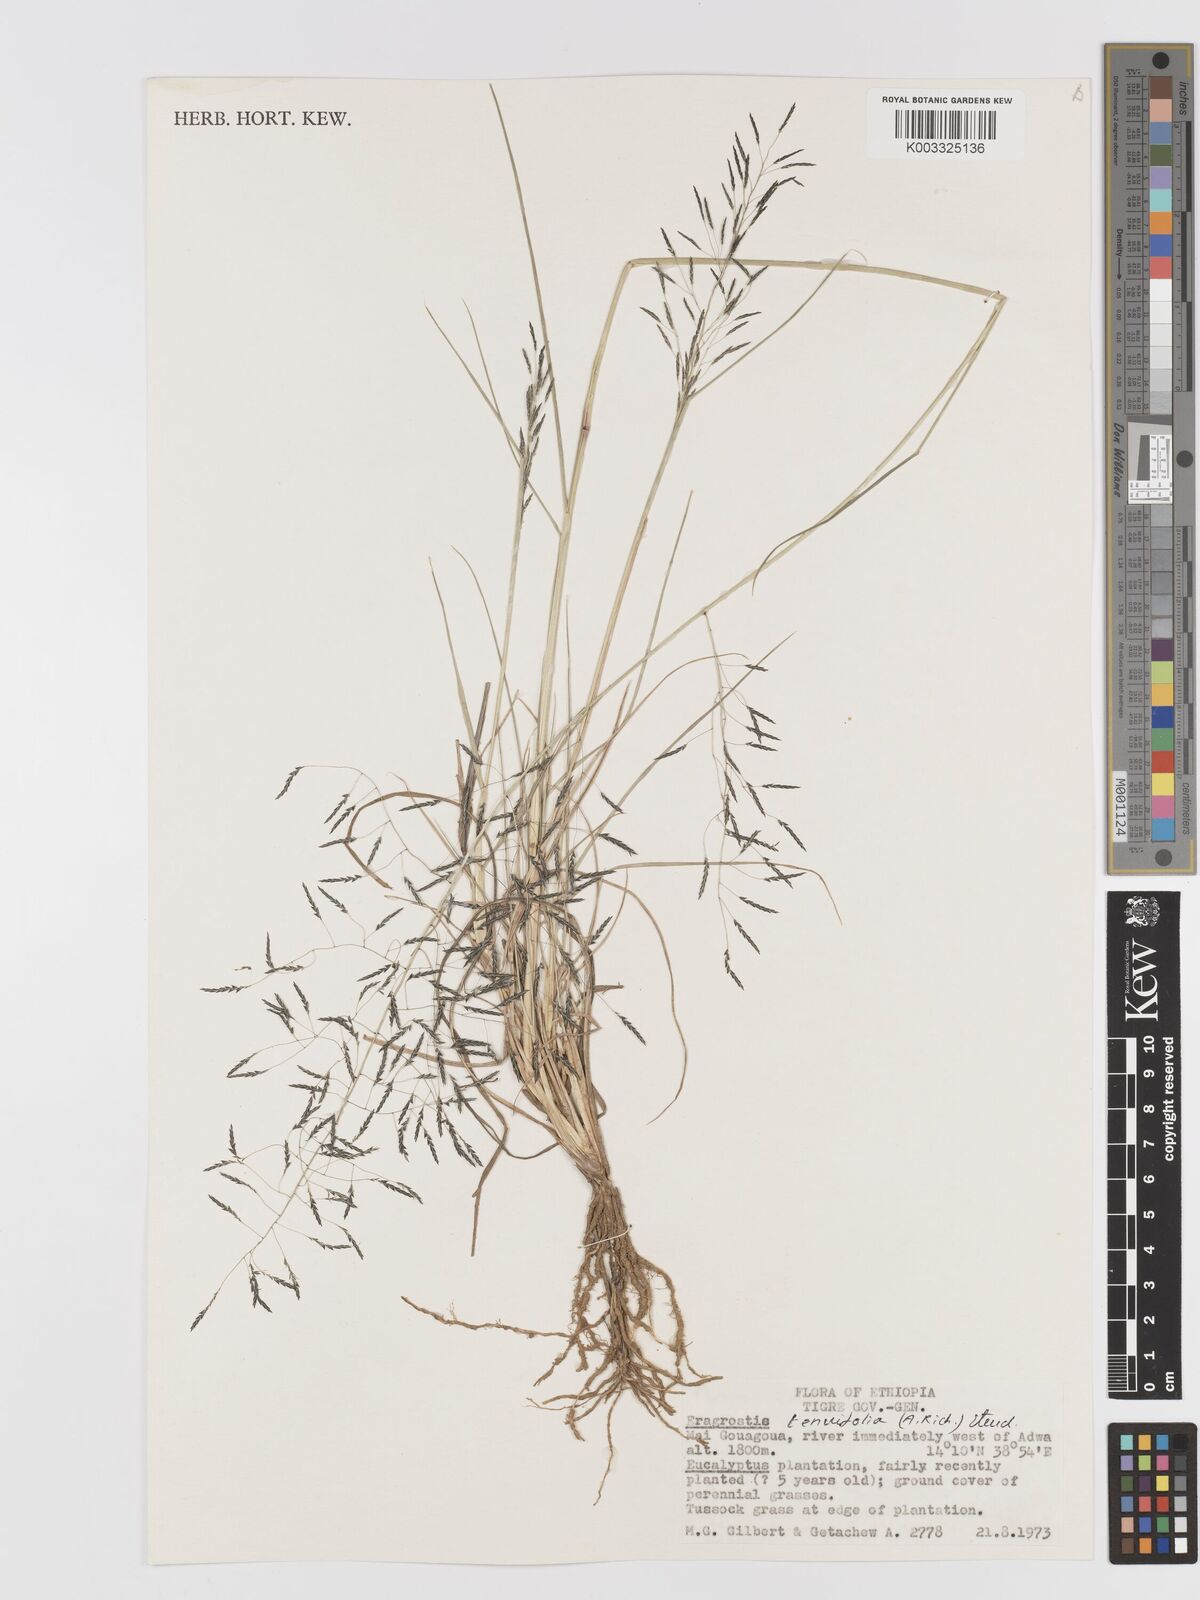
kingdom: Plantae
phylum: Tracheophyta
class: Liliopsida
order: Poales
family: Poaceae
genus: Eragrostis
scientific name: Eragrostis tenuifolia
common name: Elastic grass
